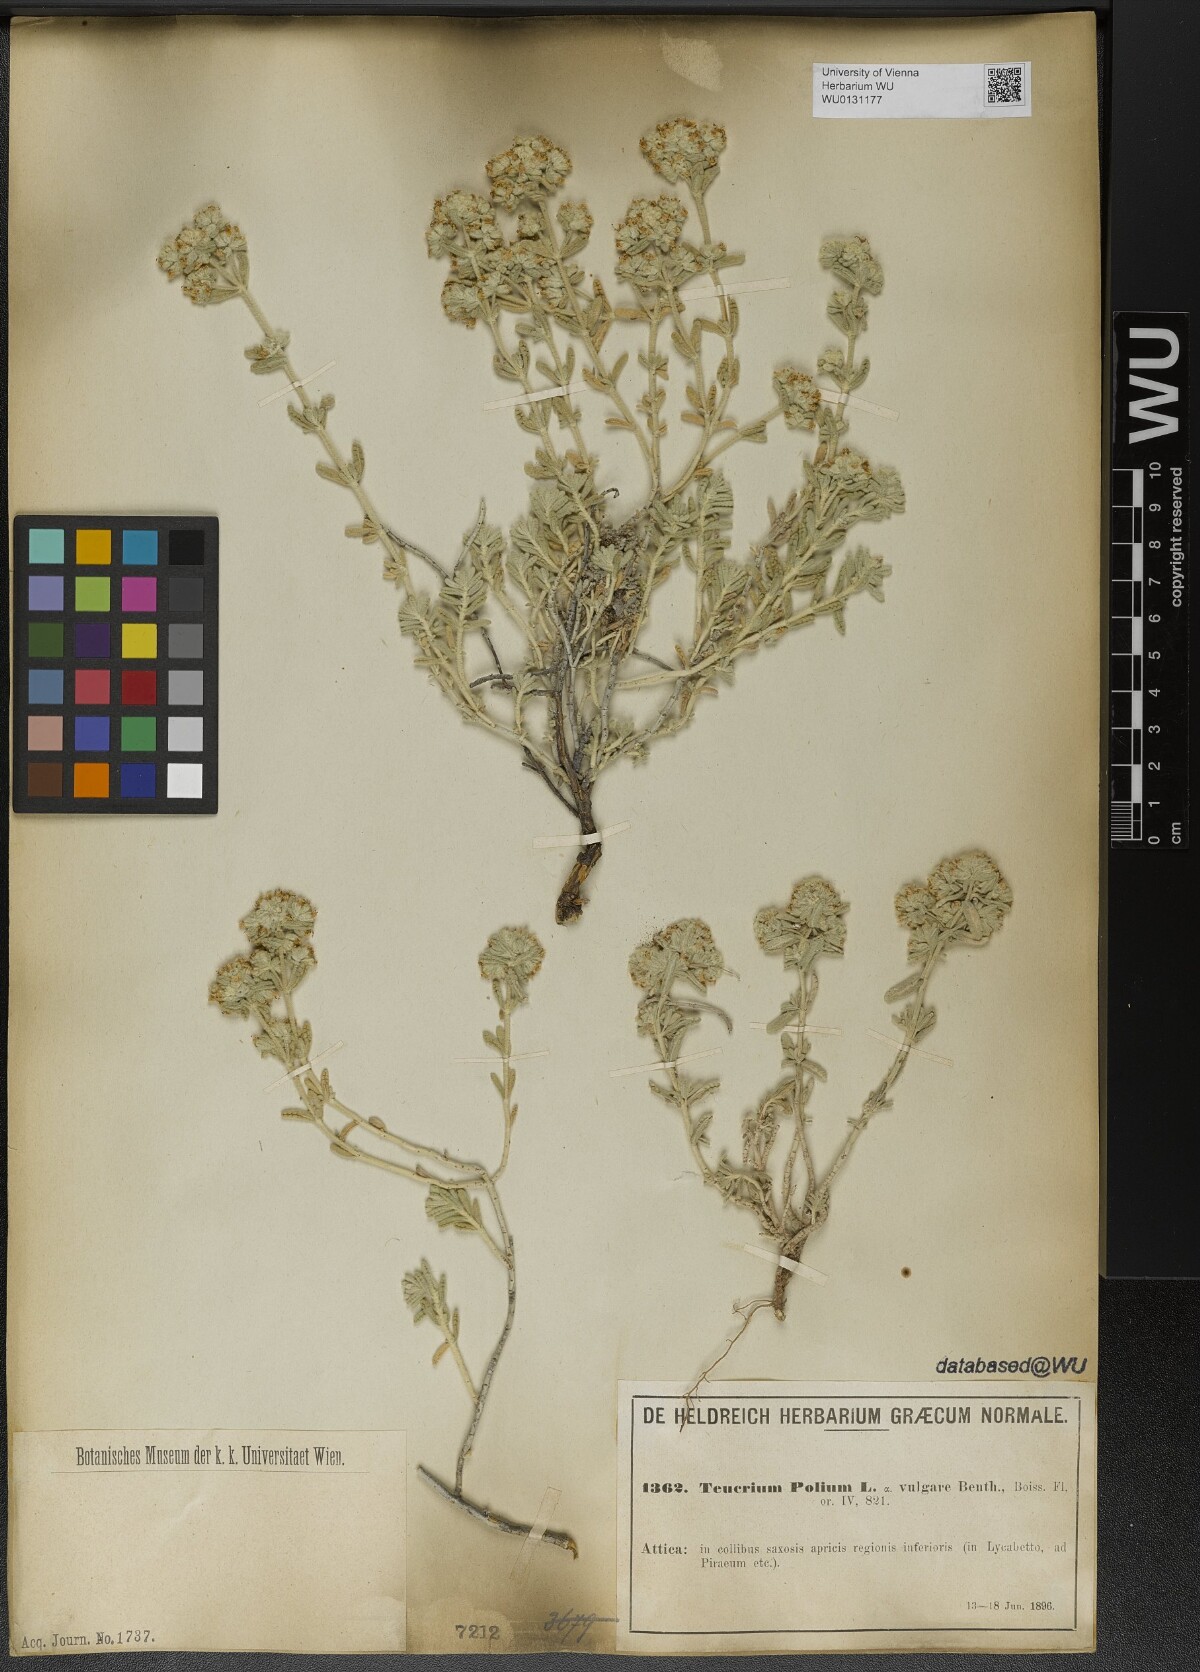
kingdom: Plantae
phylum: Tracheophyta
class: Magnoliopsida
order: Lamiales
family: Lamiaceae
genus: Teucrium
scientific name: Teucrium polium
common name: Poley
